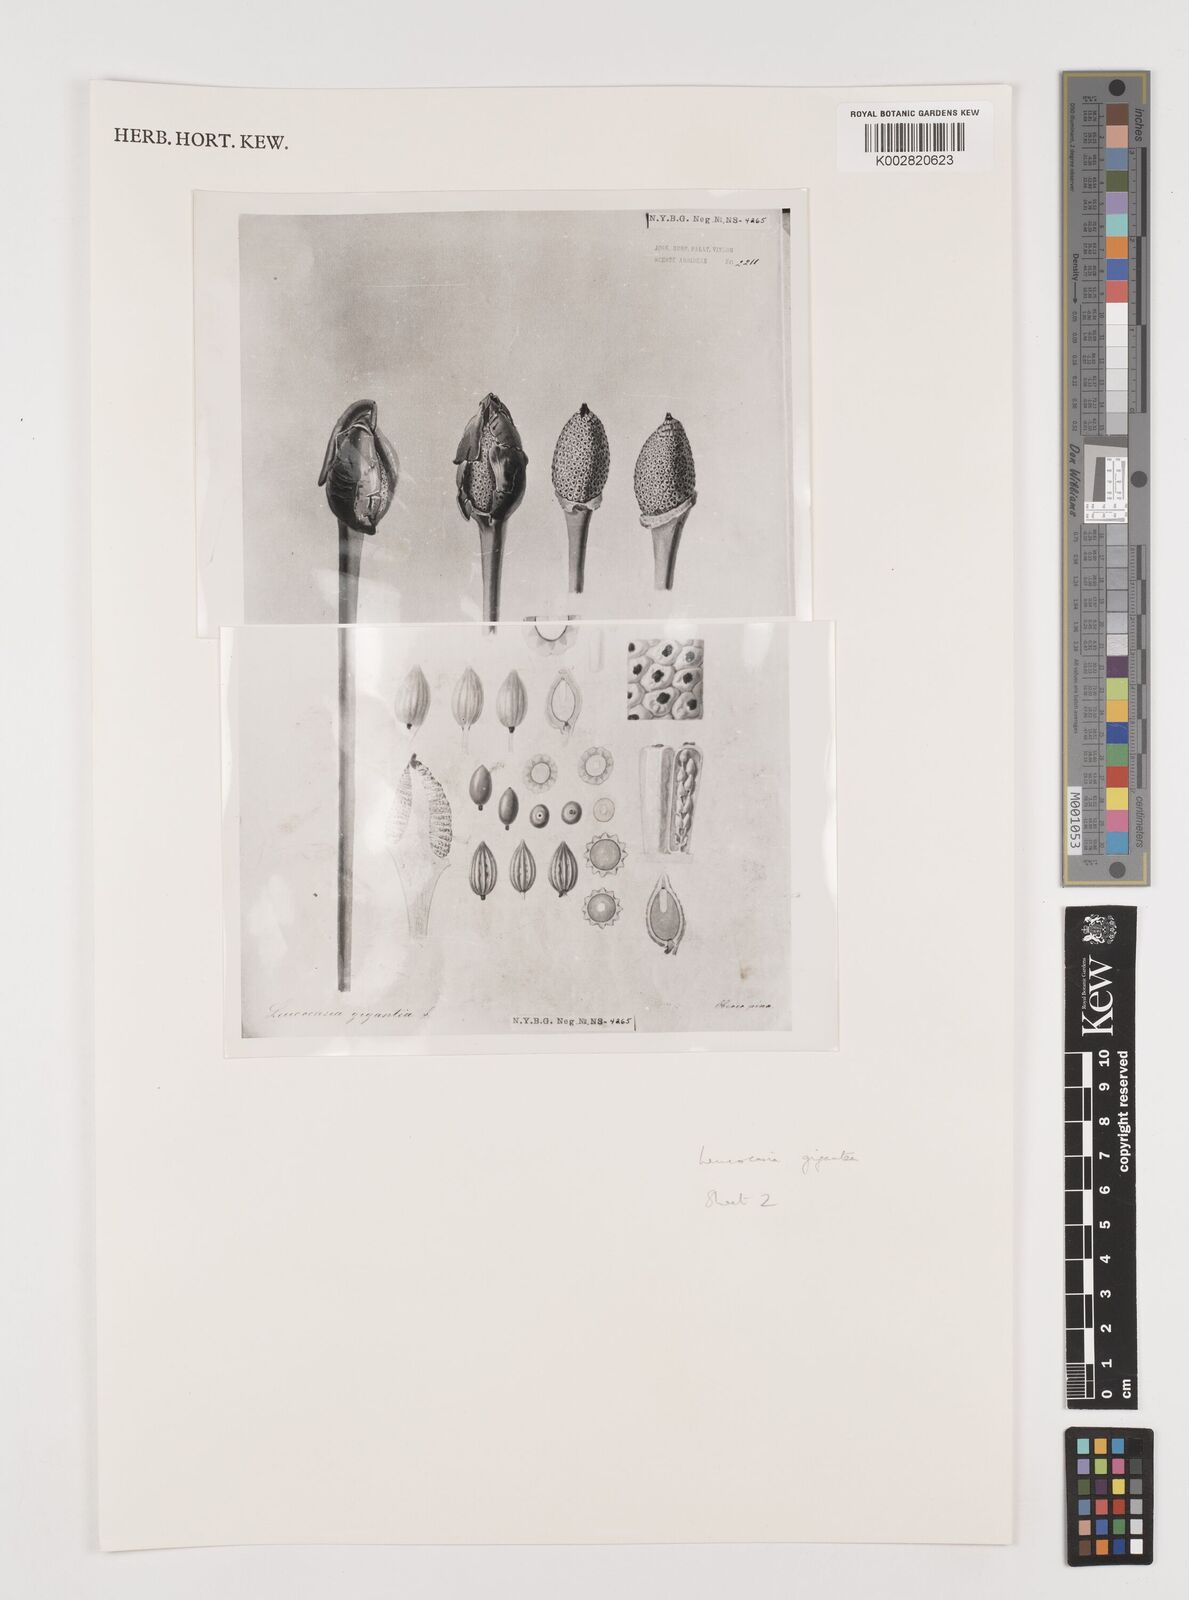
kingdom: Plantae
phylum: Tracheophyta
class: Liliopsida
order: Alismatales
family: Araceae
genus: Colocasia
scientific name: Colocasia
